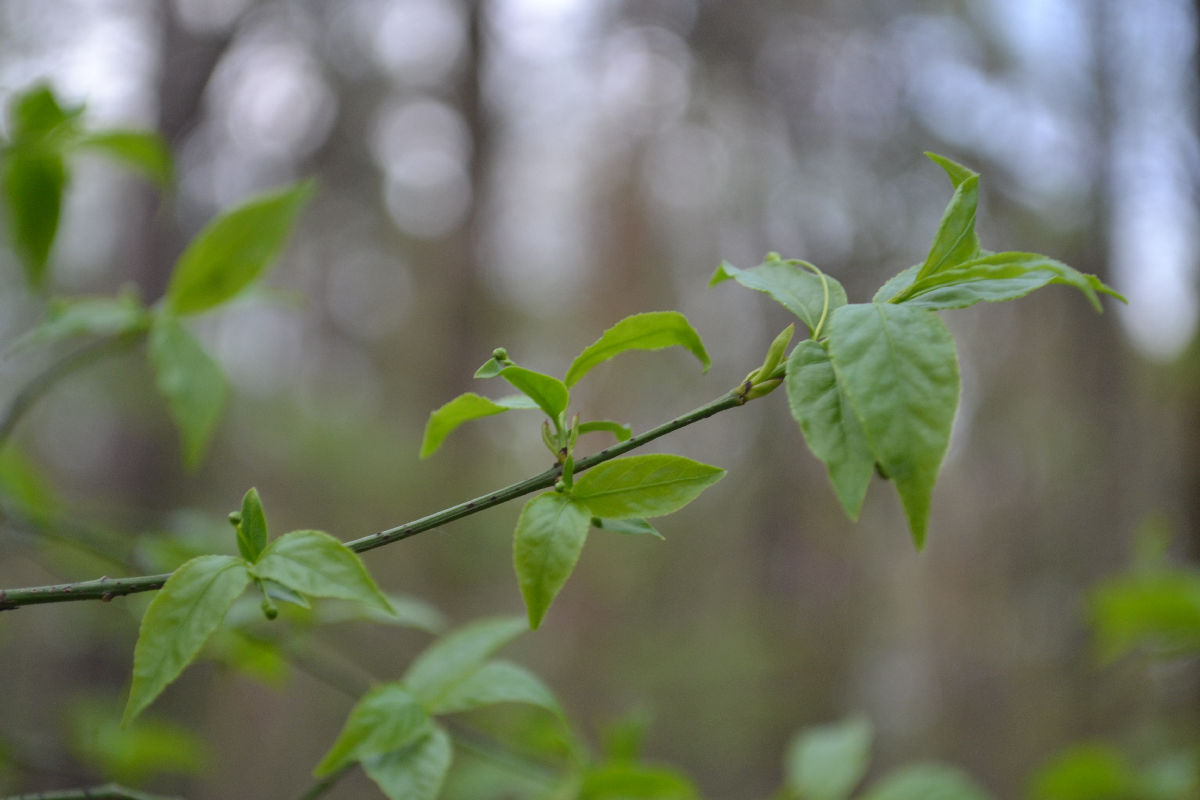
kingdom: Plantae
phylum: Tracheophyta
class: Magnoliopsida
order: Celastrales
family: Celastraceae
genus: Euonymus
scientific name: Euonymus verrucosus
